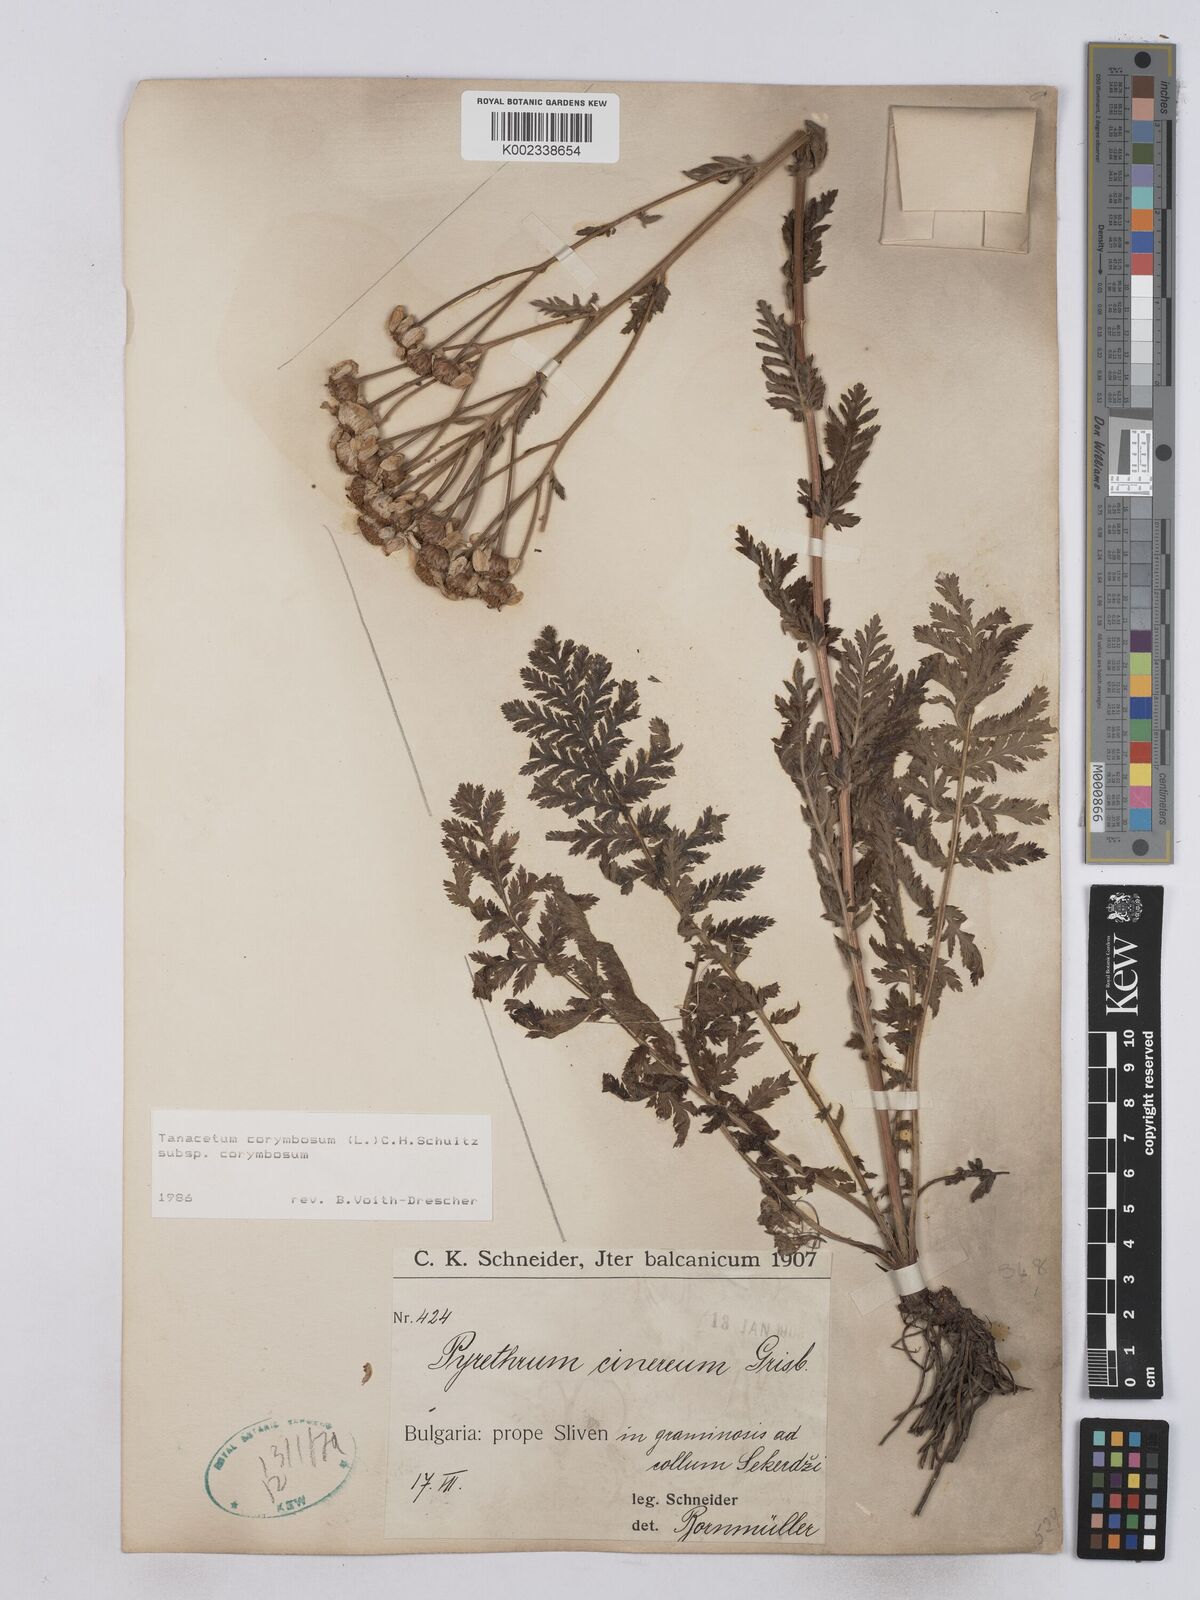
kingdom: Plantae
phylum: Tracheophyta
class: Magnoliopsida
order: Asterales
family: Asteraceae
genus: Tanacetum
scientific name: Tanacetum corymbosum
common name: Scentless feverfew
